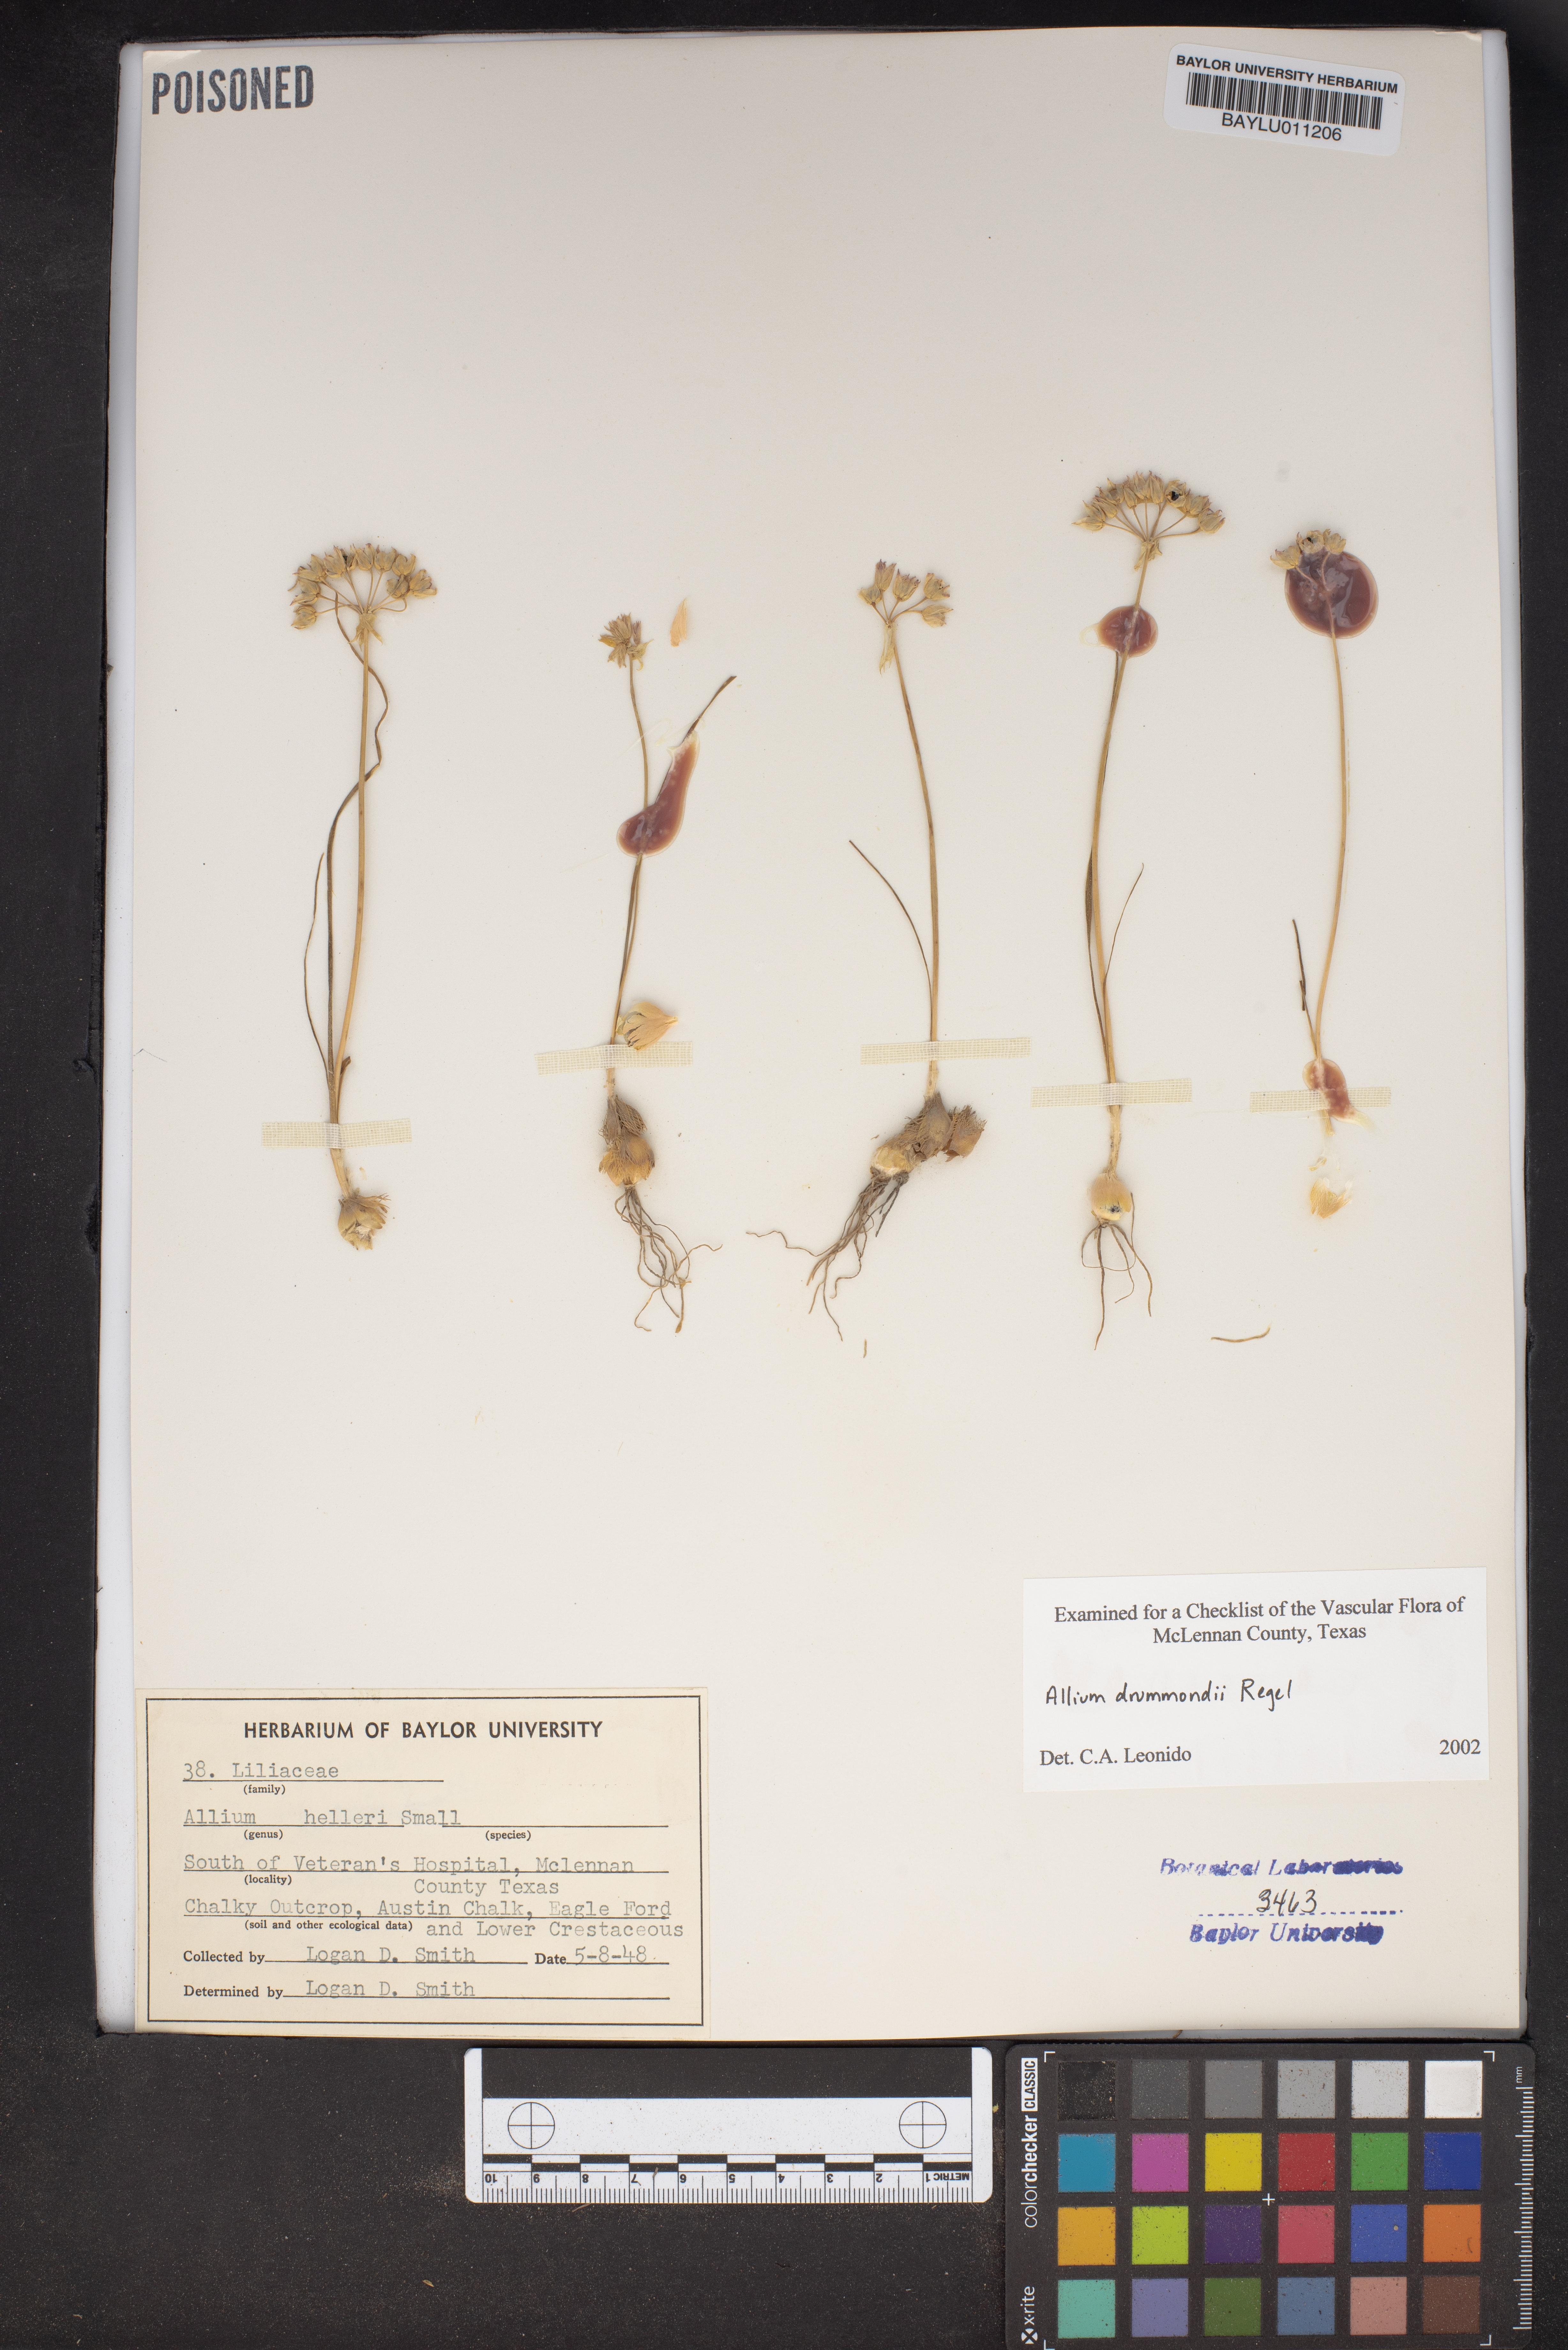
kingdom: Plantae
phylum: Tracheophyta
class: Liliopsida
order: Asparagales
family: Amaryllidaceae
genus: Allium
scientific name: Allium drummondii
